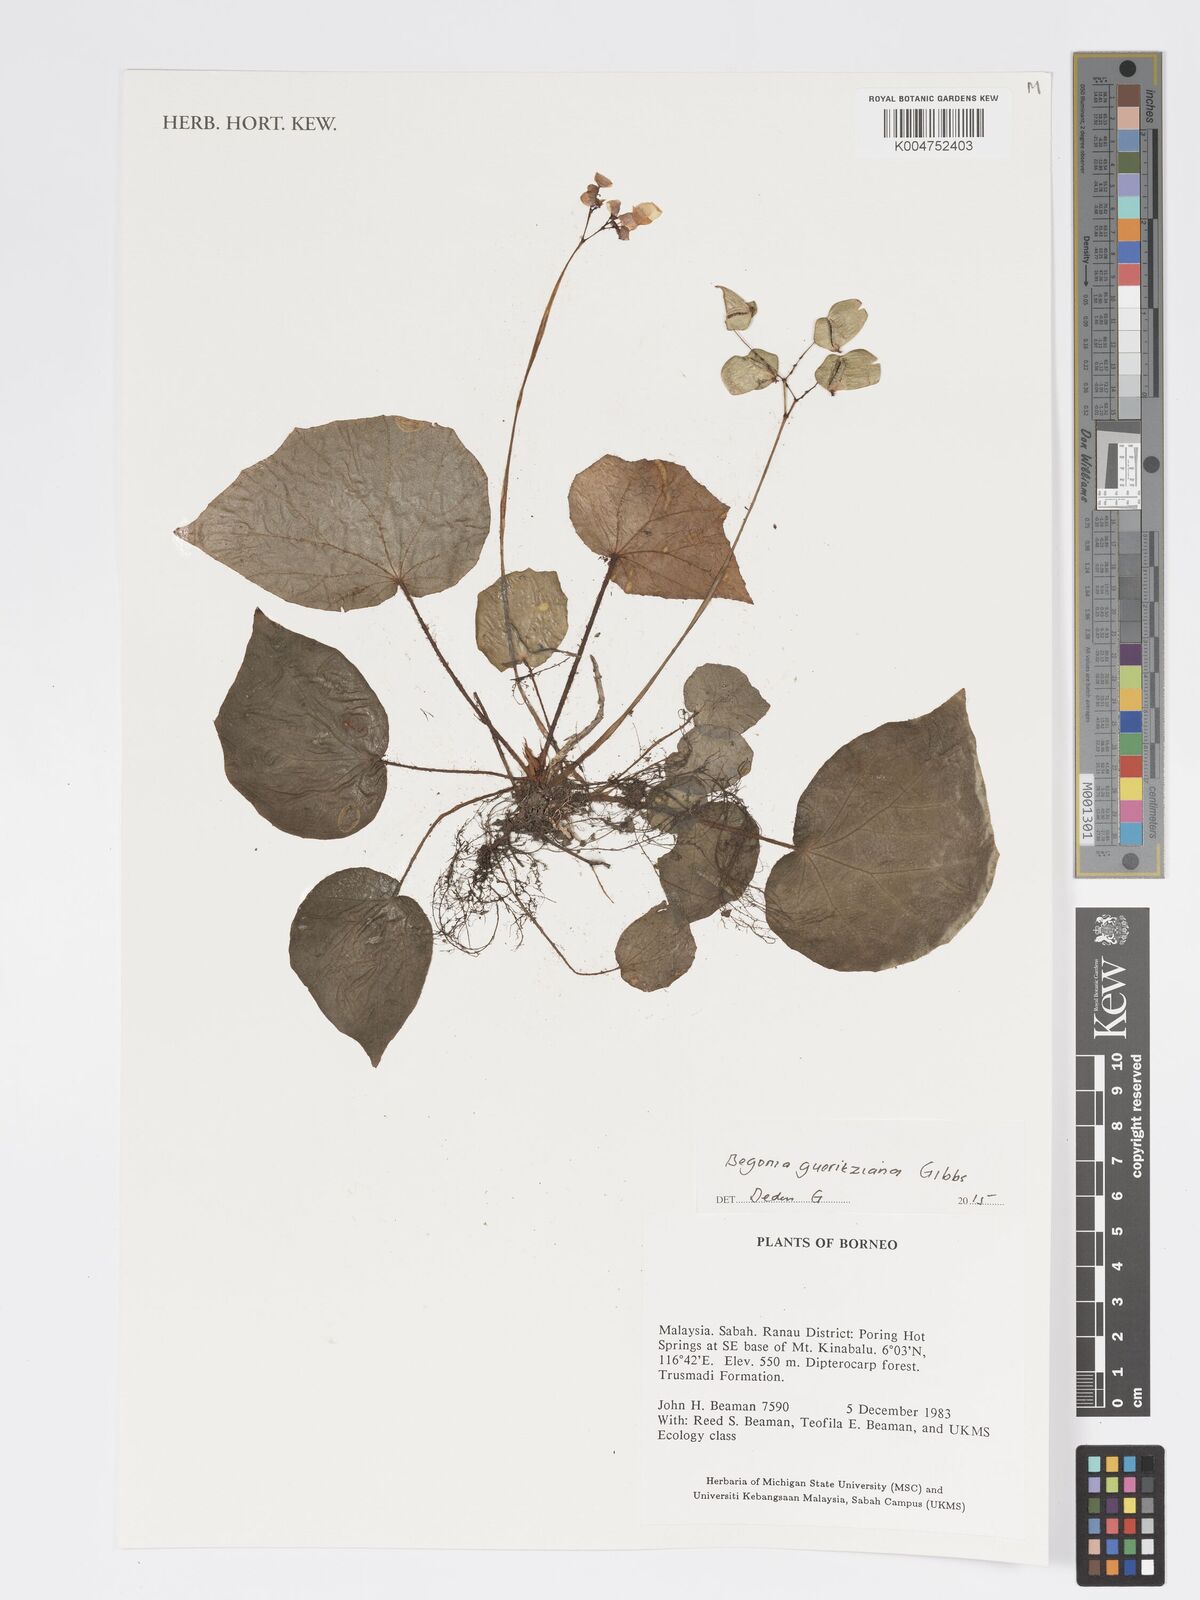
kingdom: Plantae
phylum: Tracheophyta
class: Magnoliopsida
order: Cucurbitales
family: Begoniaceae
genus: Begonia
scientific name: Begonia gueritziana
